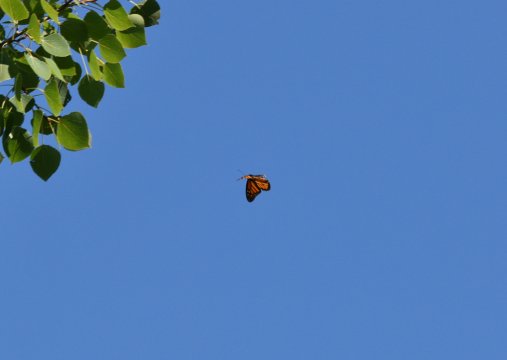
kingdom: Animalia
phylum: Arthropoda
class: Insecta
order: Lepidoptera
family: Nymphalidae
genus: Danaus
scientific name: Danaus plexippus
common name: Monarch
